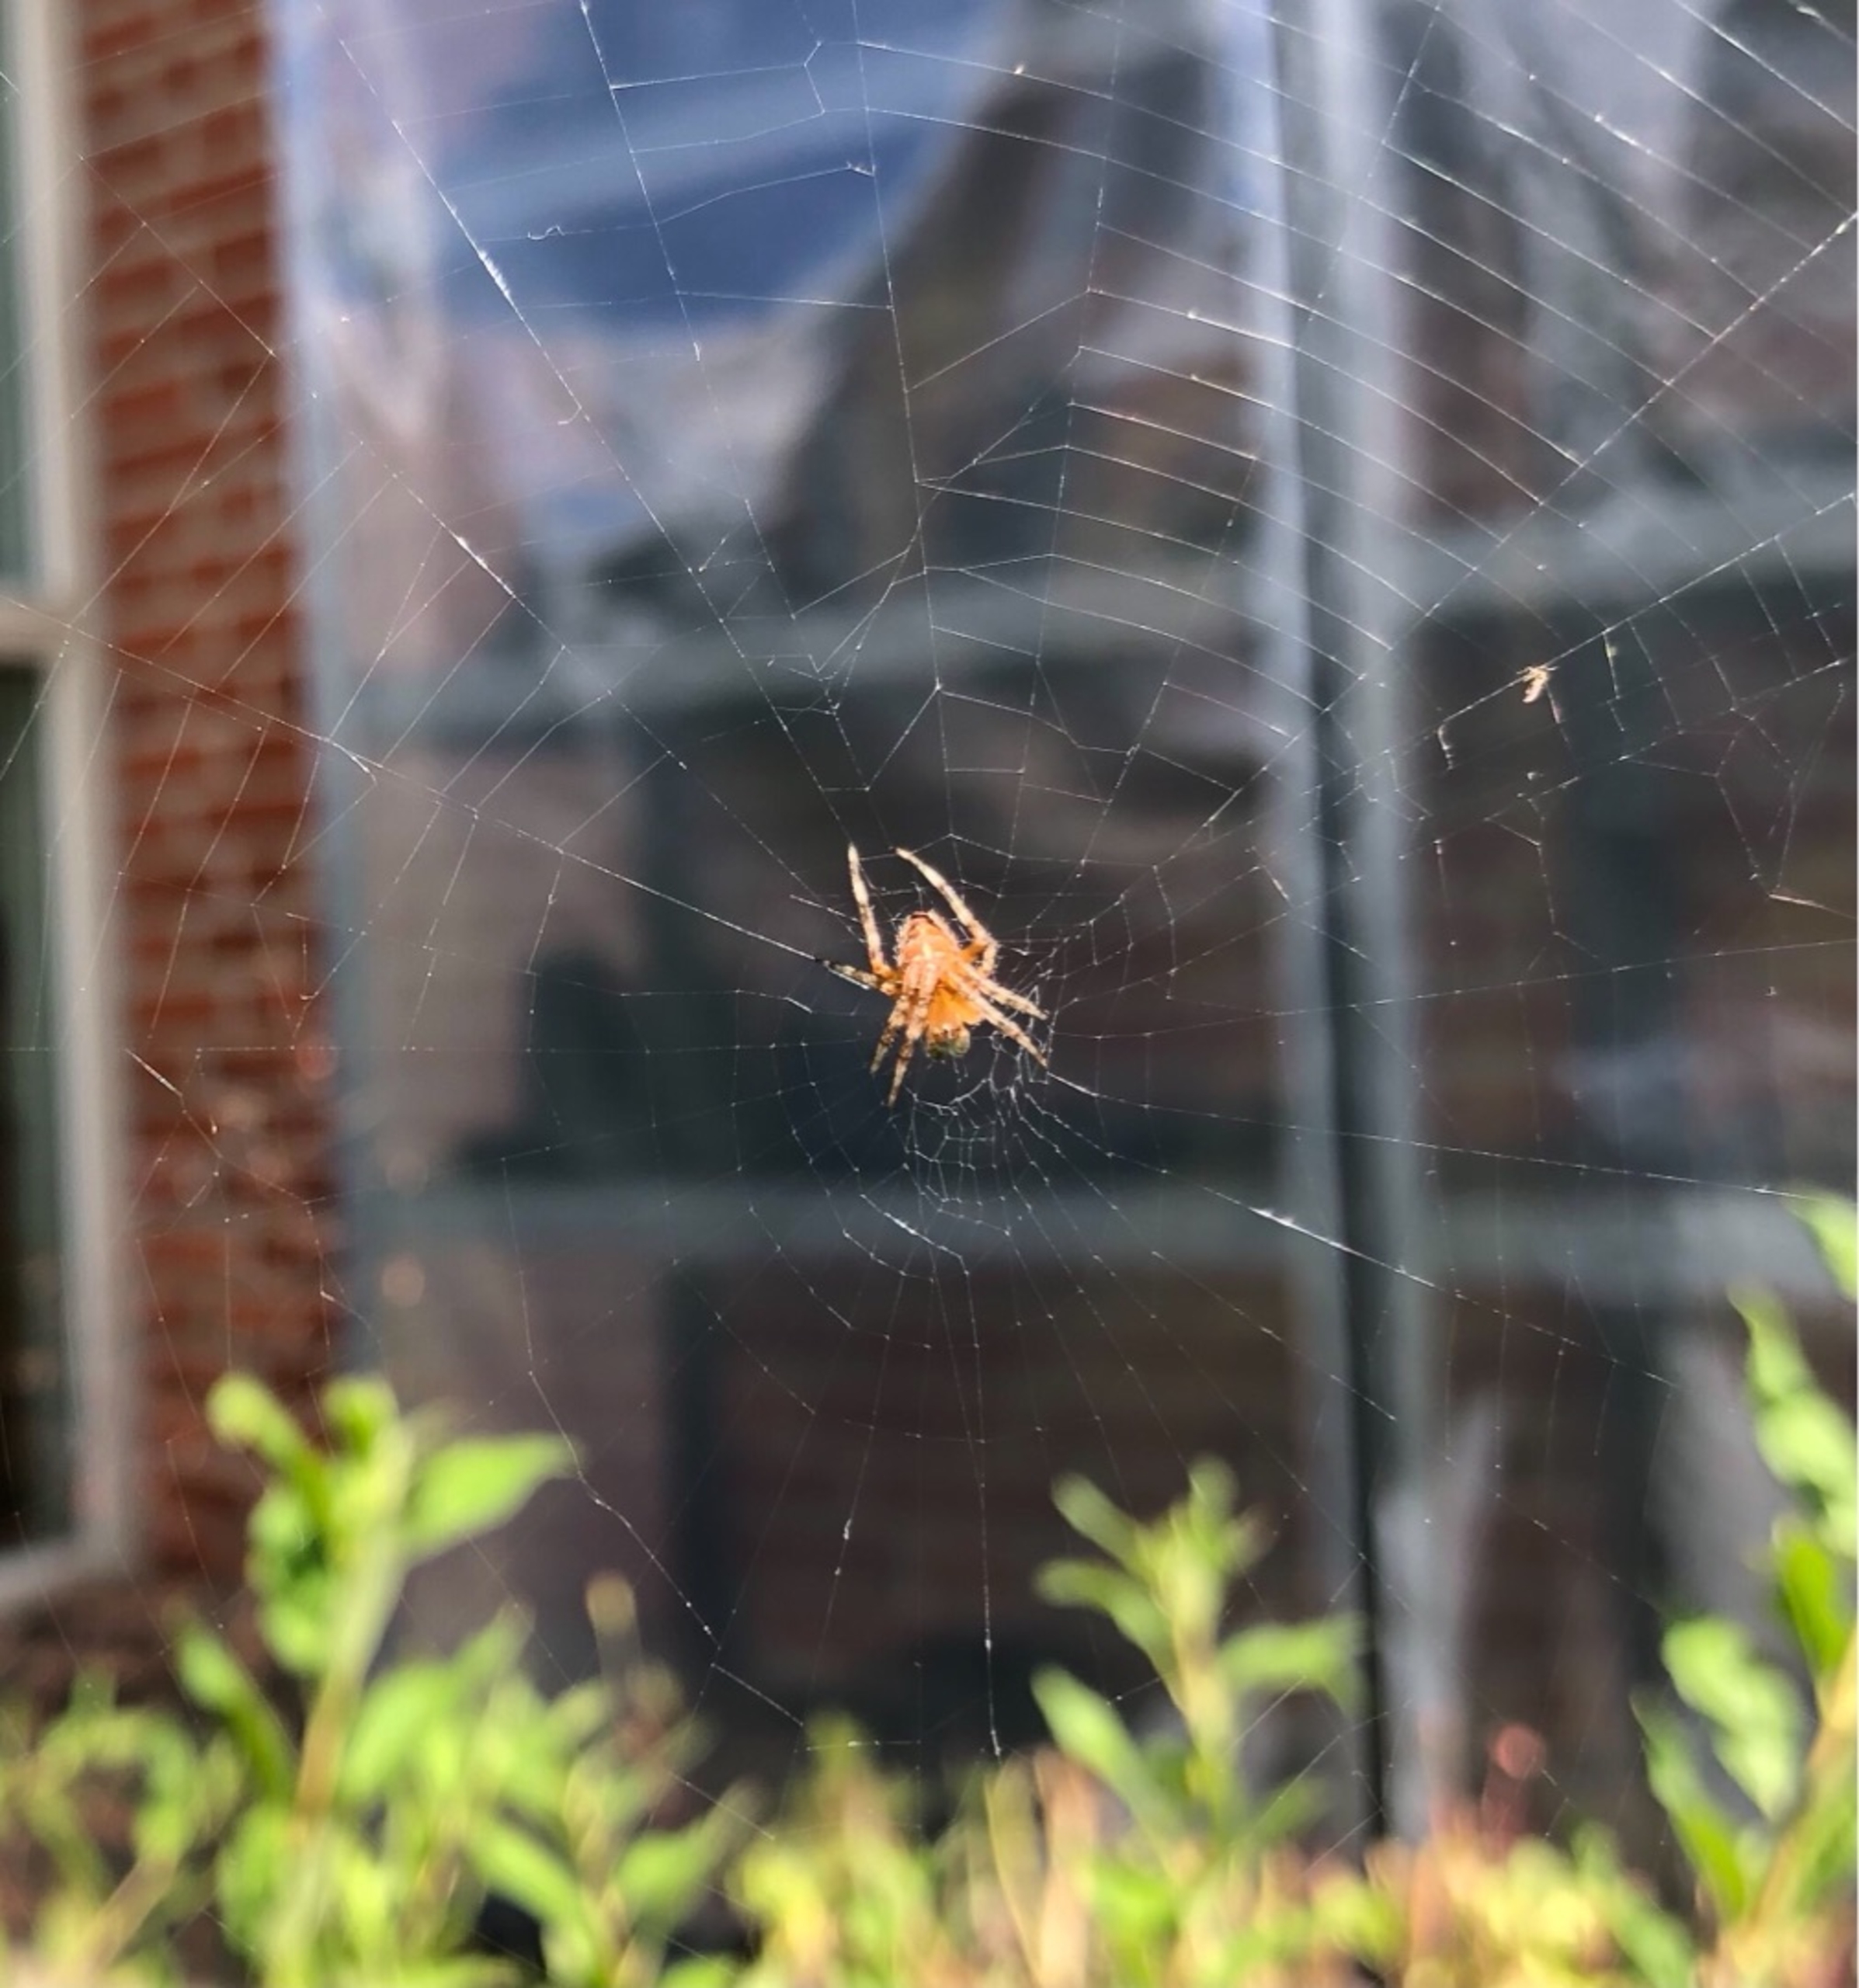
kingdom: Animalia
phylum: Arthropoda
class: Arachnida
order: Araneae
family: Araneidae
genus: Araneus
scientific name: Araneus diadematus
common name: Korsedderkop
